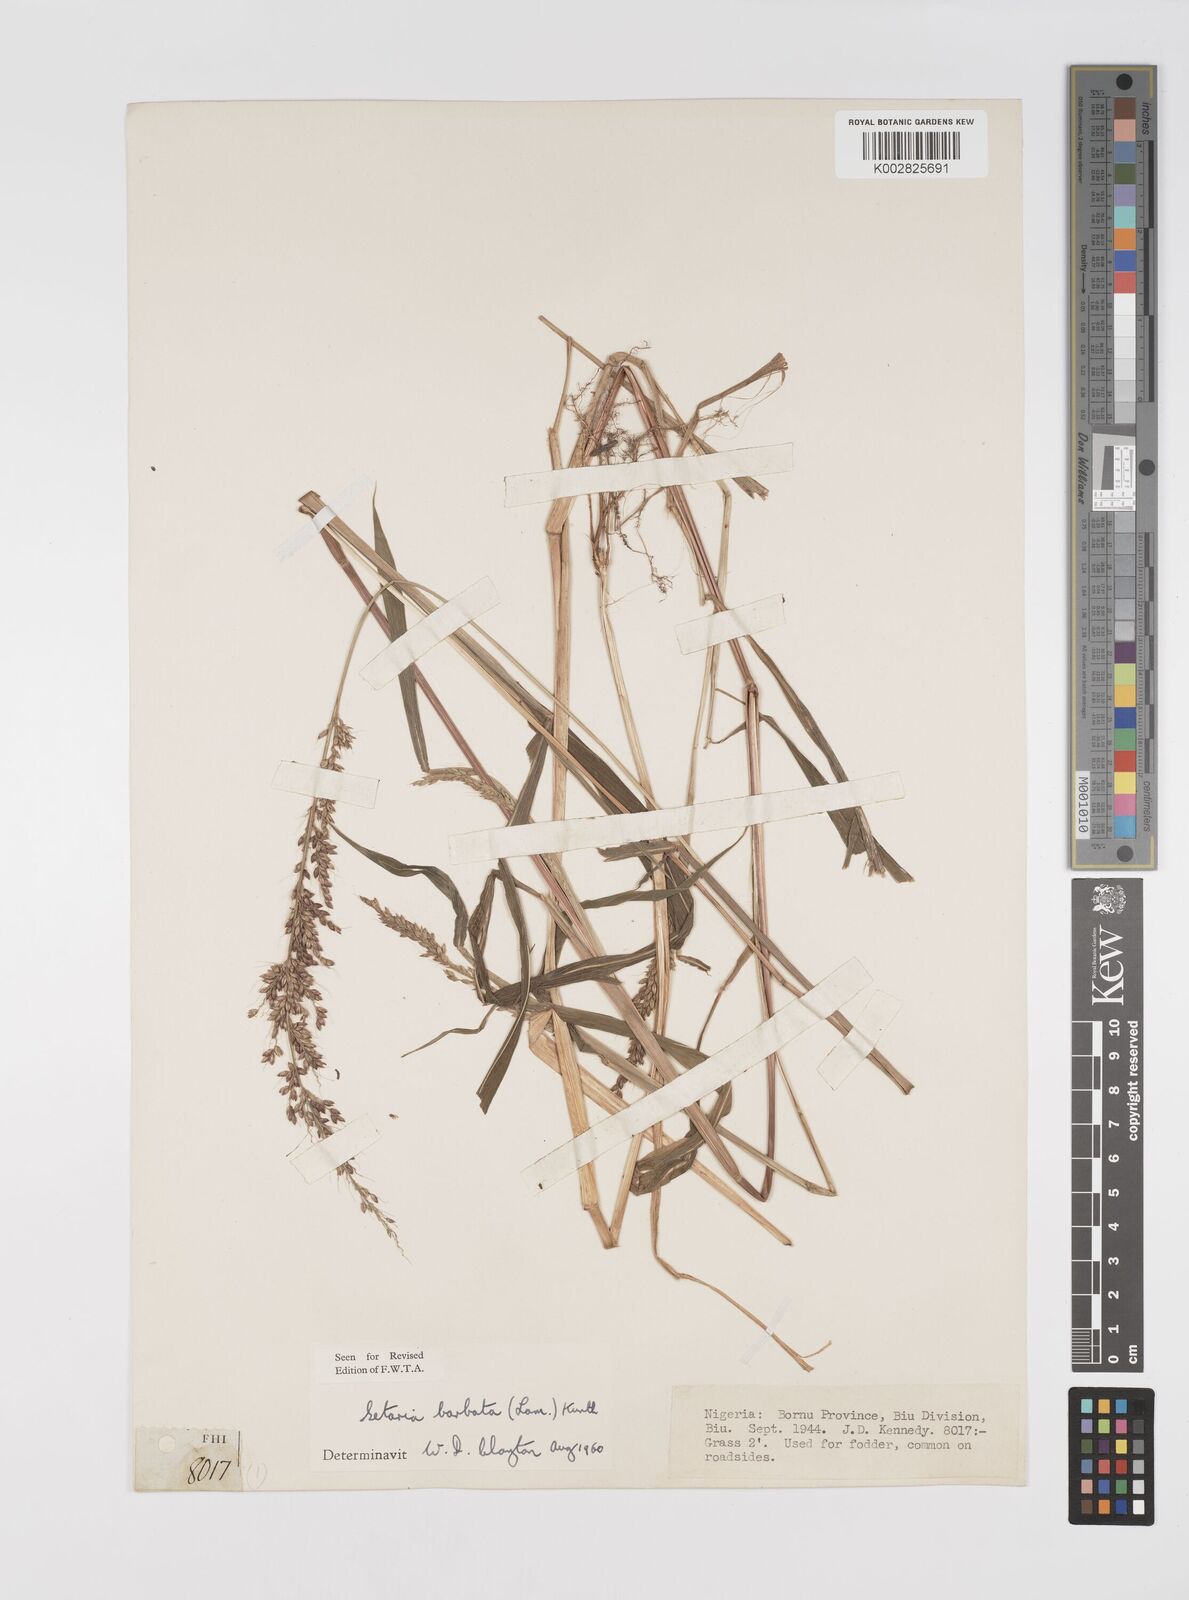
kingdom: Plantae
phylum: Tracheophyta
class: Liliopsida
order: Poales
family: Poaceae
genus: Setaria
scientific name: Setaria barbata
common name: East indian bristlegrass
